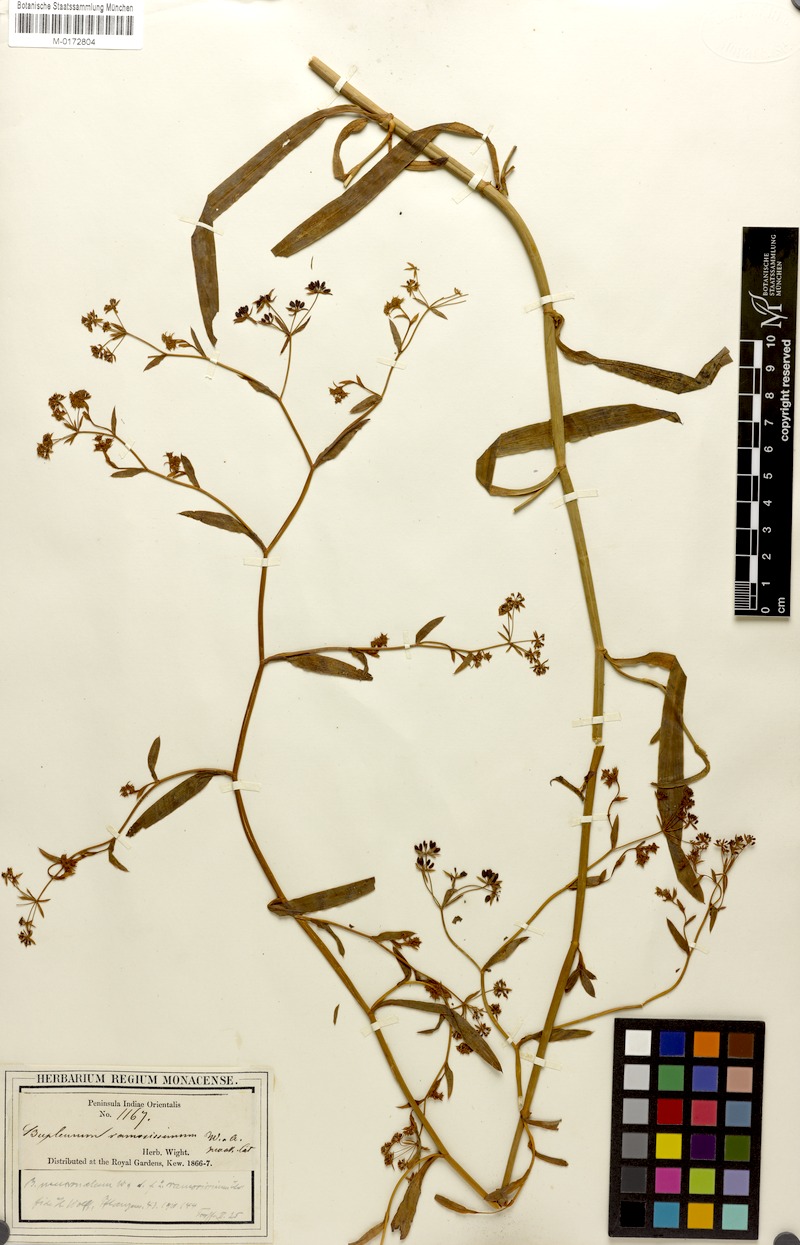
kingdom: Plantae
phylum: Tracheophyta
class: Magnoliopsida
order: Apiales
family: Apiaceae
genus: Bupleurum
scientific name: Bupleurum ramosissimum
